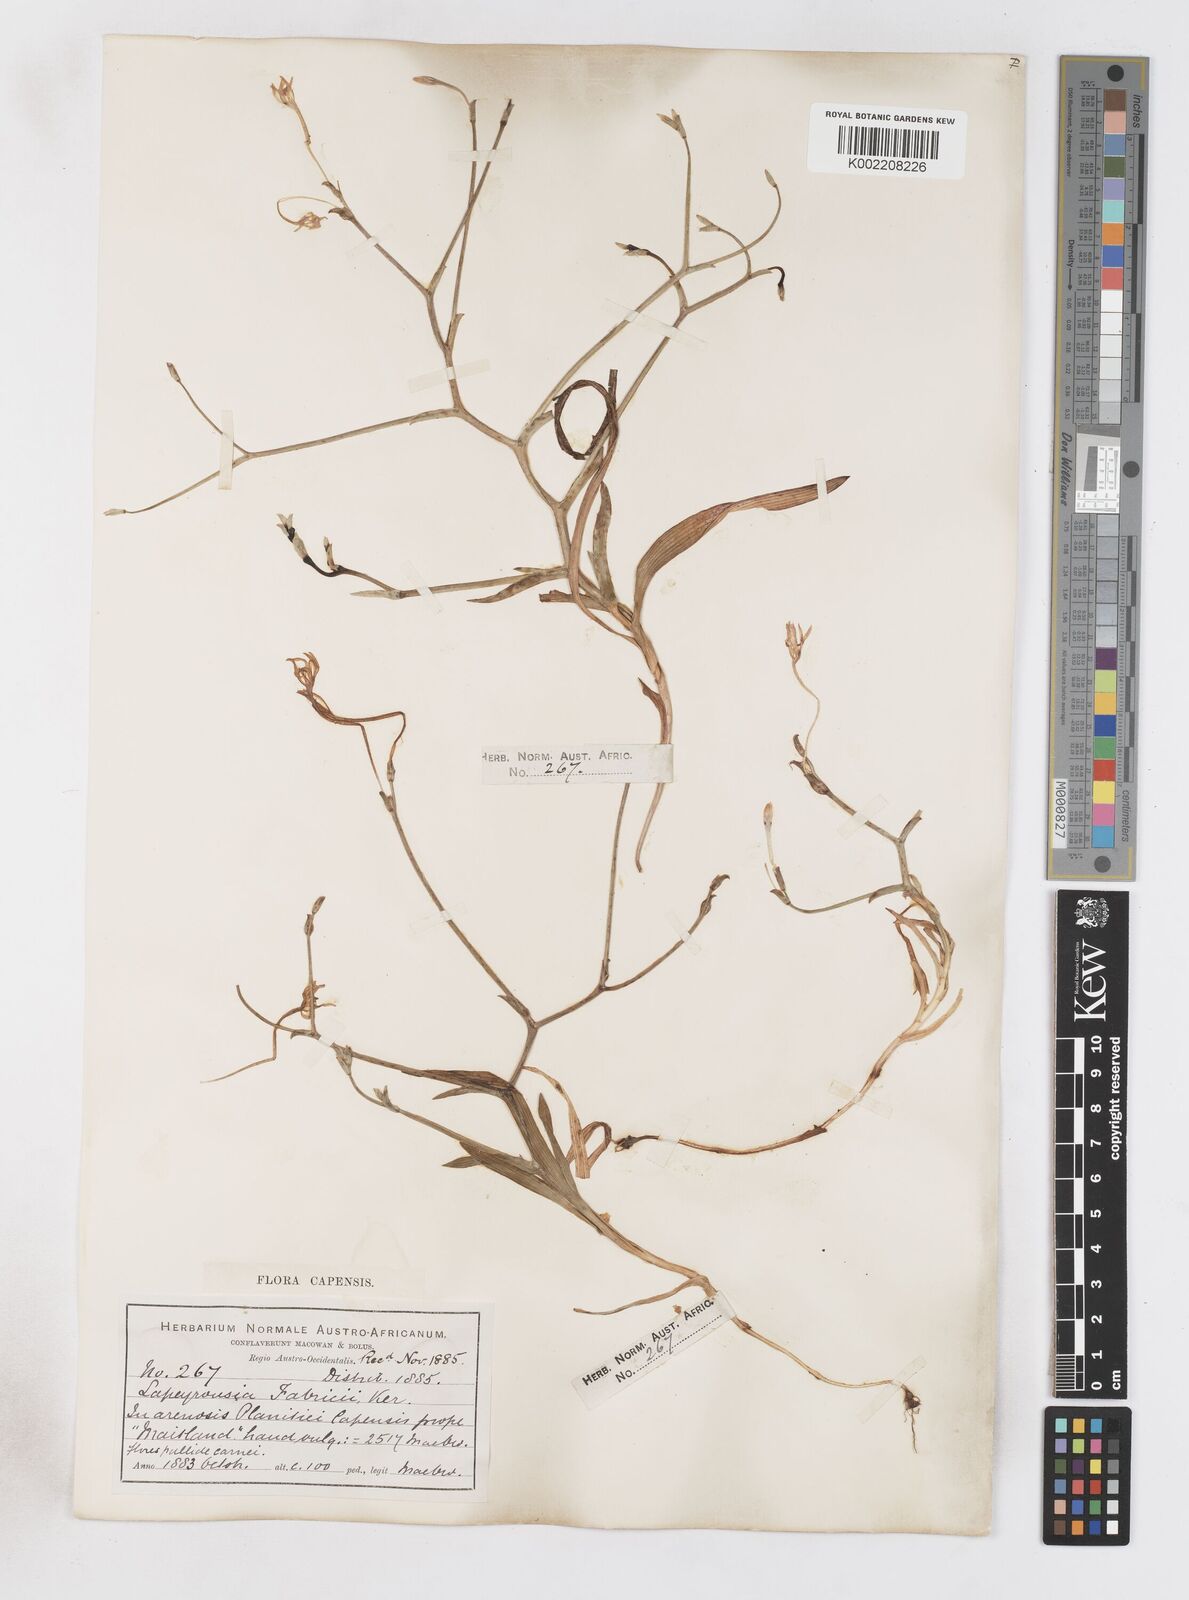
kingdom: Plantae
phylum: Tracheophyta
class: Liliopsida
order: Asparagales
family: Iridaceae
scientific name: Iridaceae
